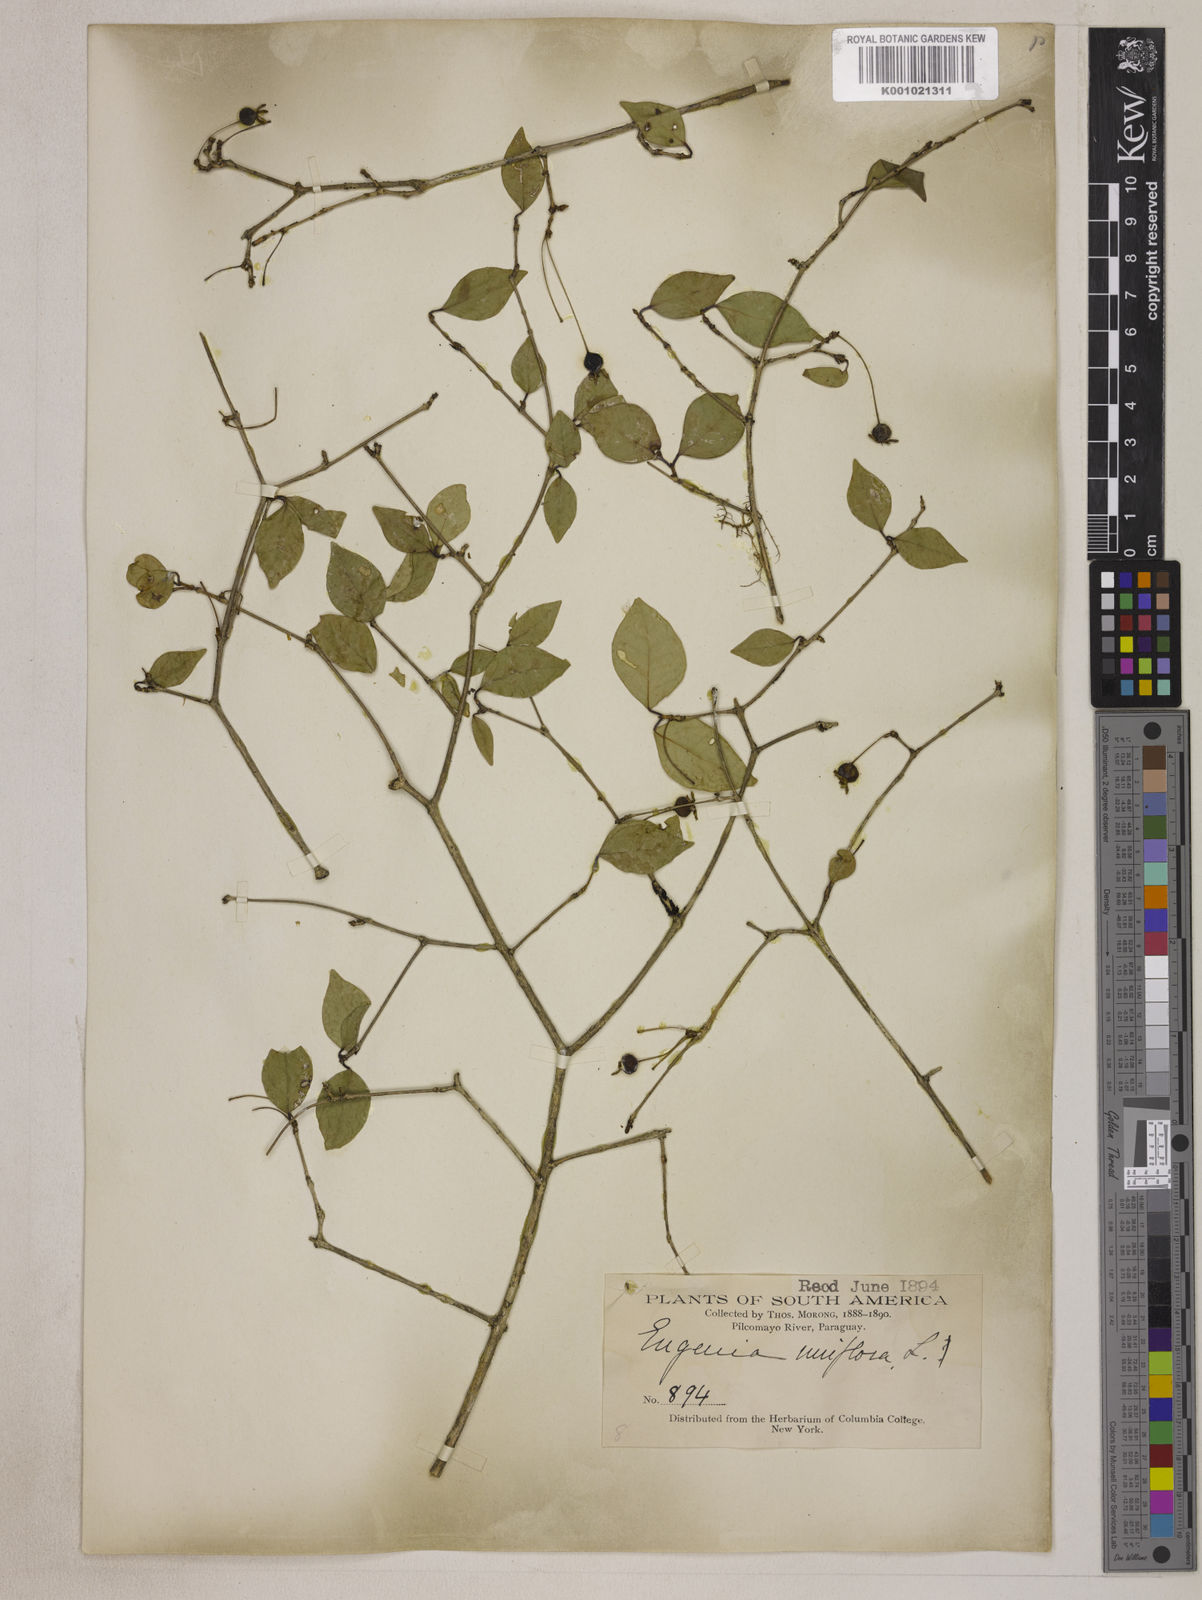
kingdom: Plantae
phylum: Tracheophyta
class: Magnoliopsida
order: Myrtales
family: Myrtaceae
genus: Eugenia
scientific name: Eugenia uniflora
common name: Surinam cherry
